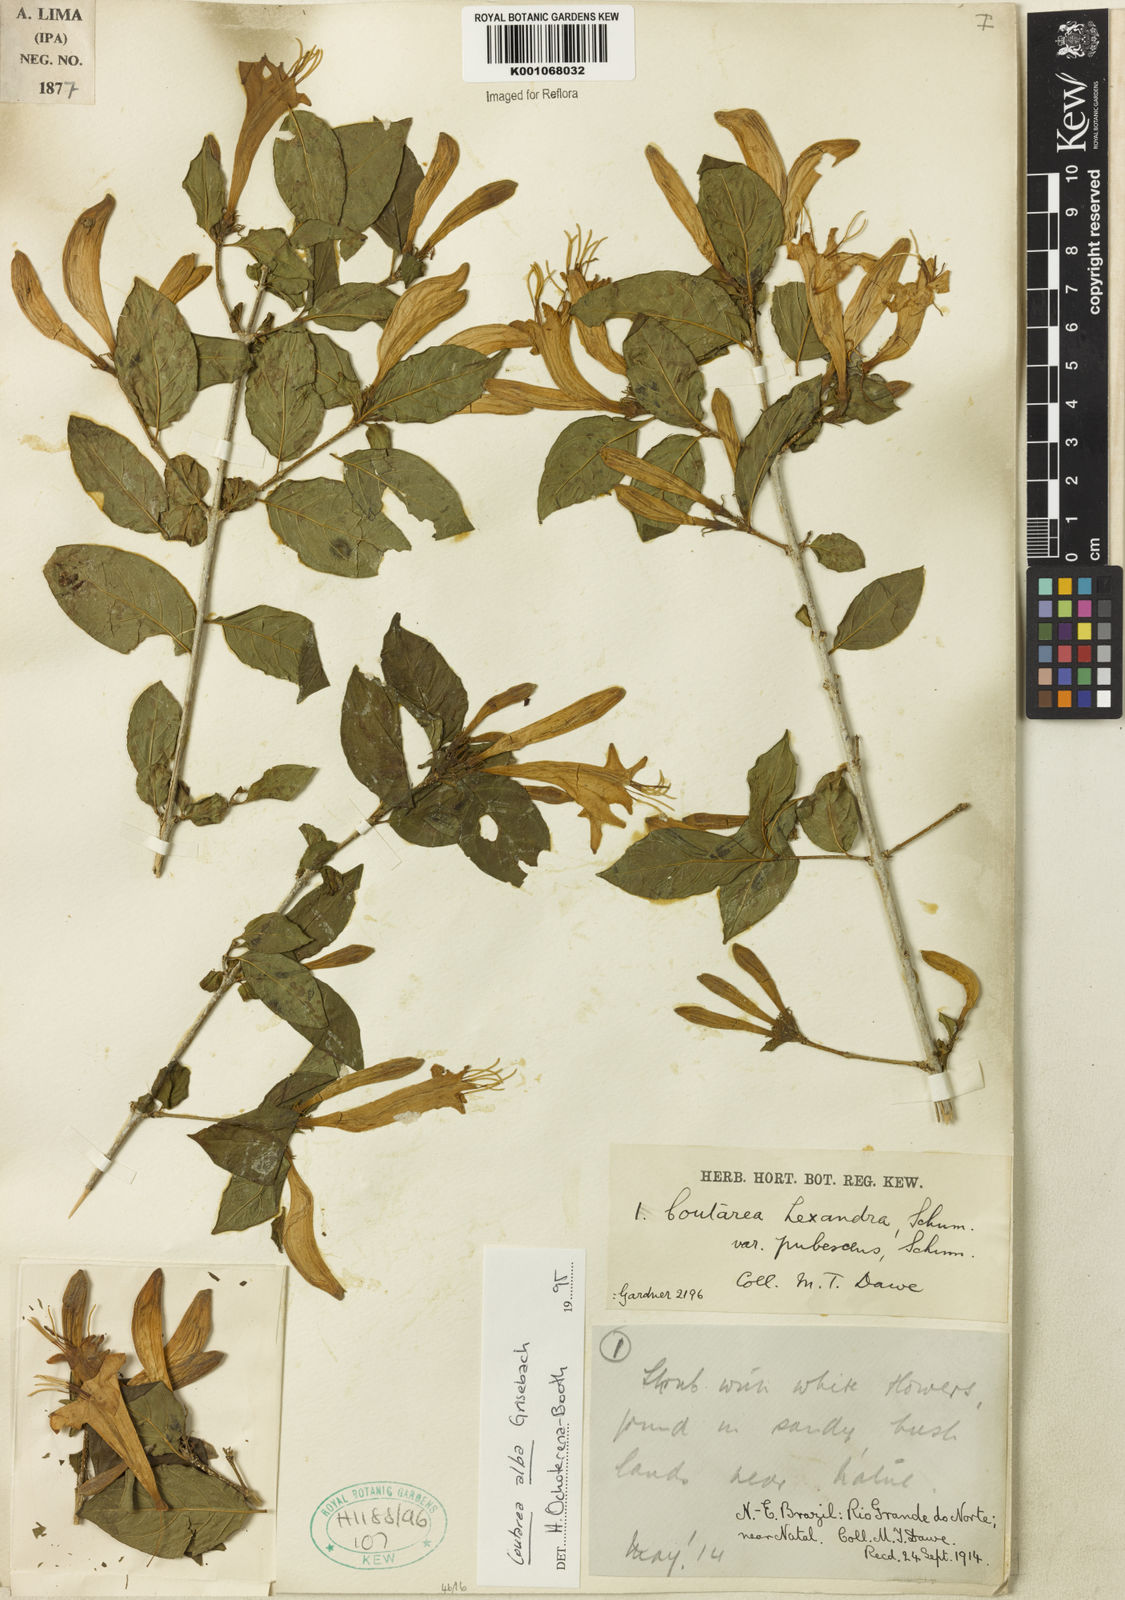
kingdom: Plantae
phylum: Tracheophyta
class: Magnoliopsida
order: Gentianales
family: Rubiaceae
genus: Coutarea
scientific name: Coutarea alba
